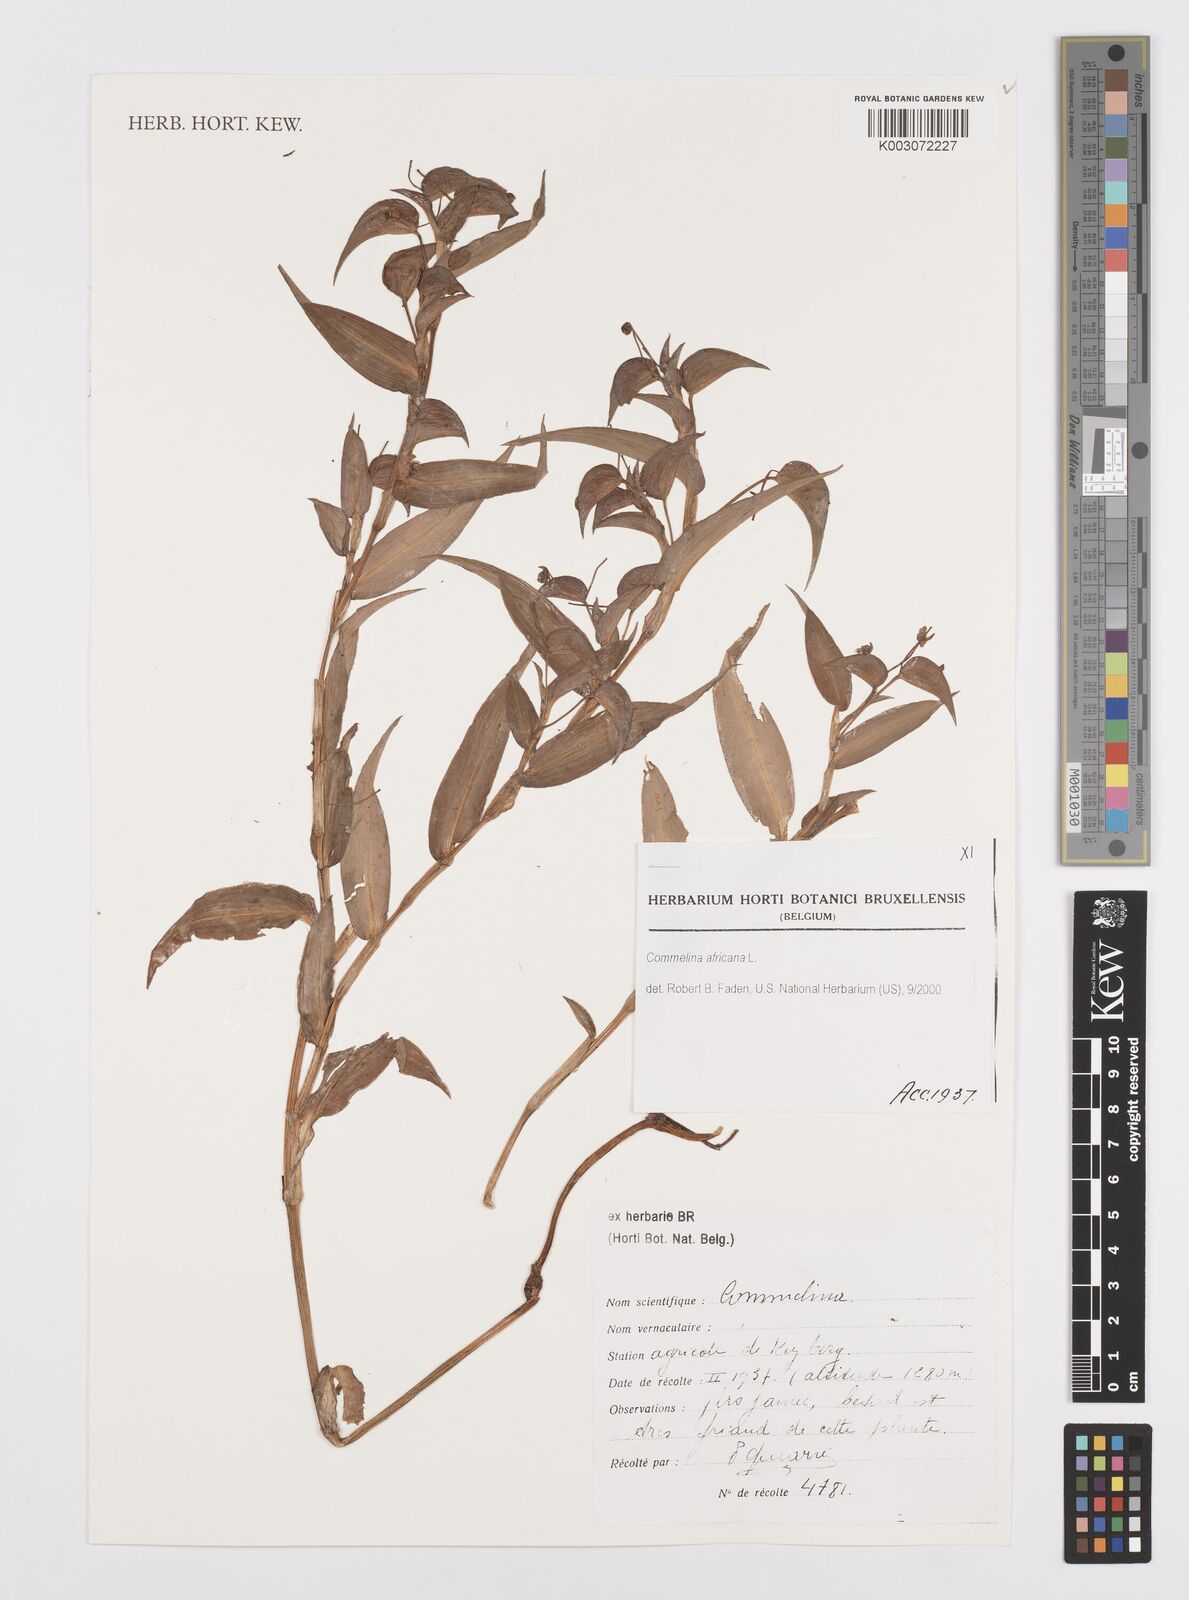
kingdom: Plantae
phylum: Tracheophyta
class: Liliopsida
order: Commelinales
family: Commelinaceae
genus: Commelina
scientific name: Commelina africana
